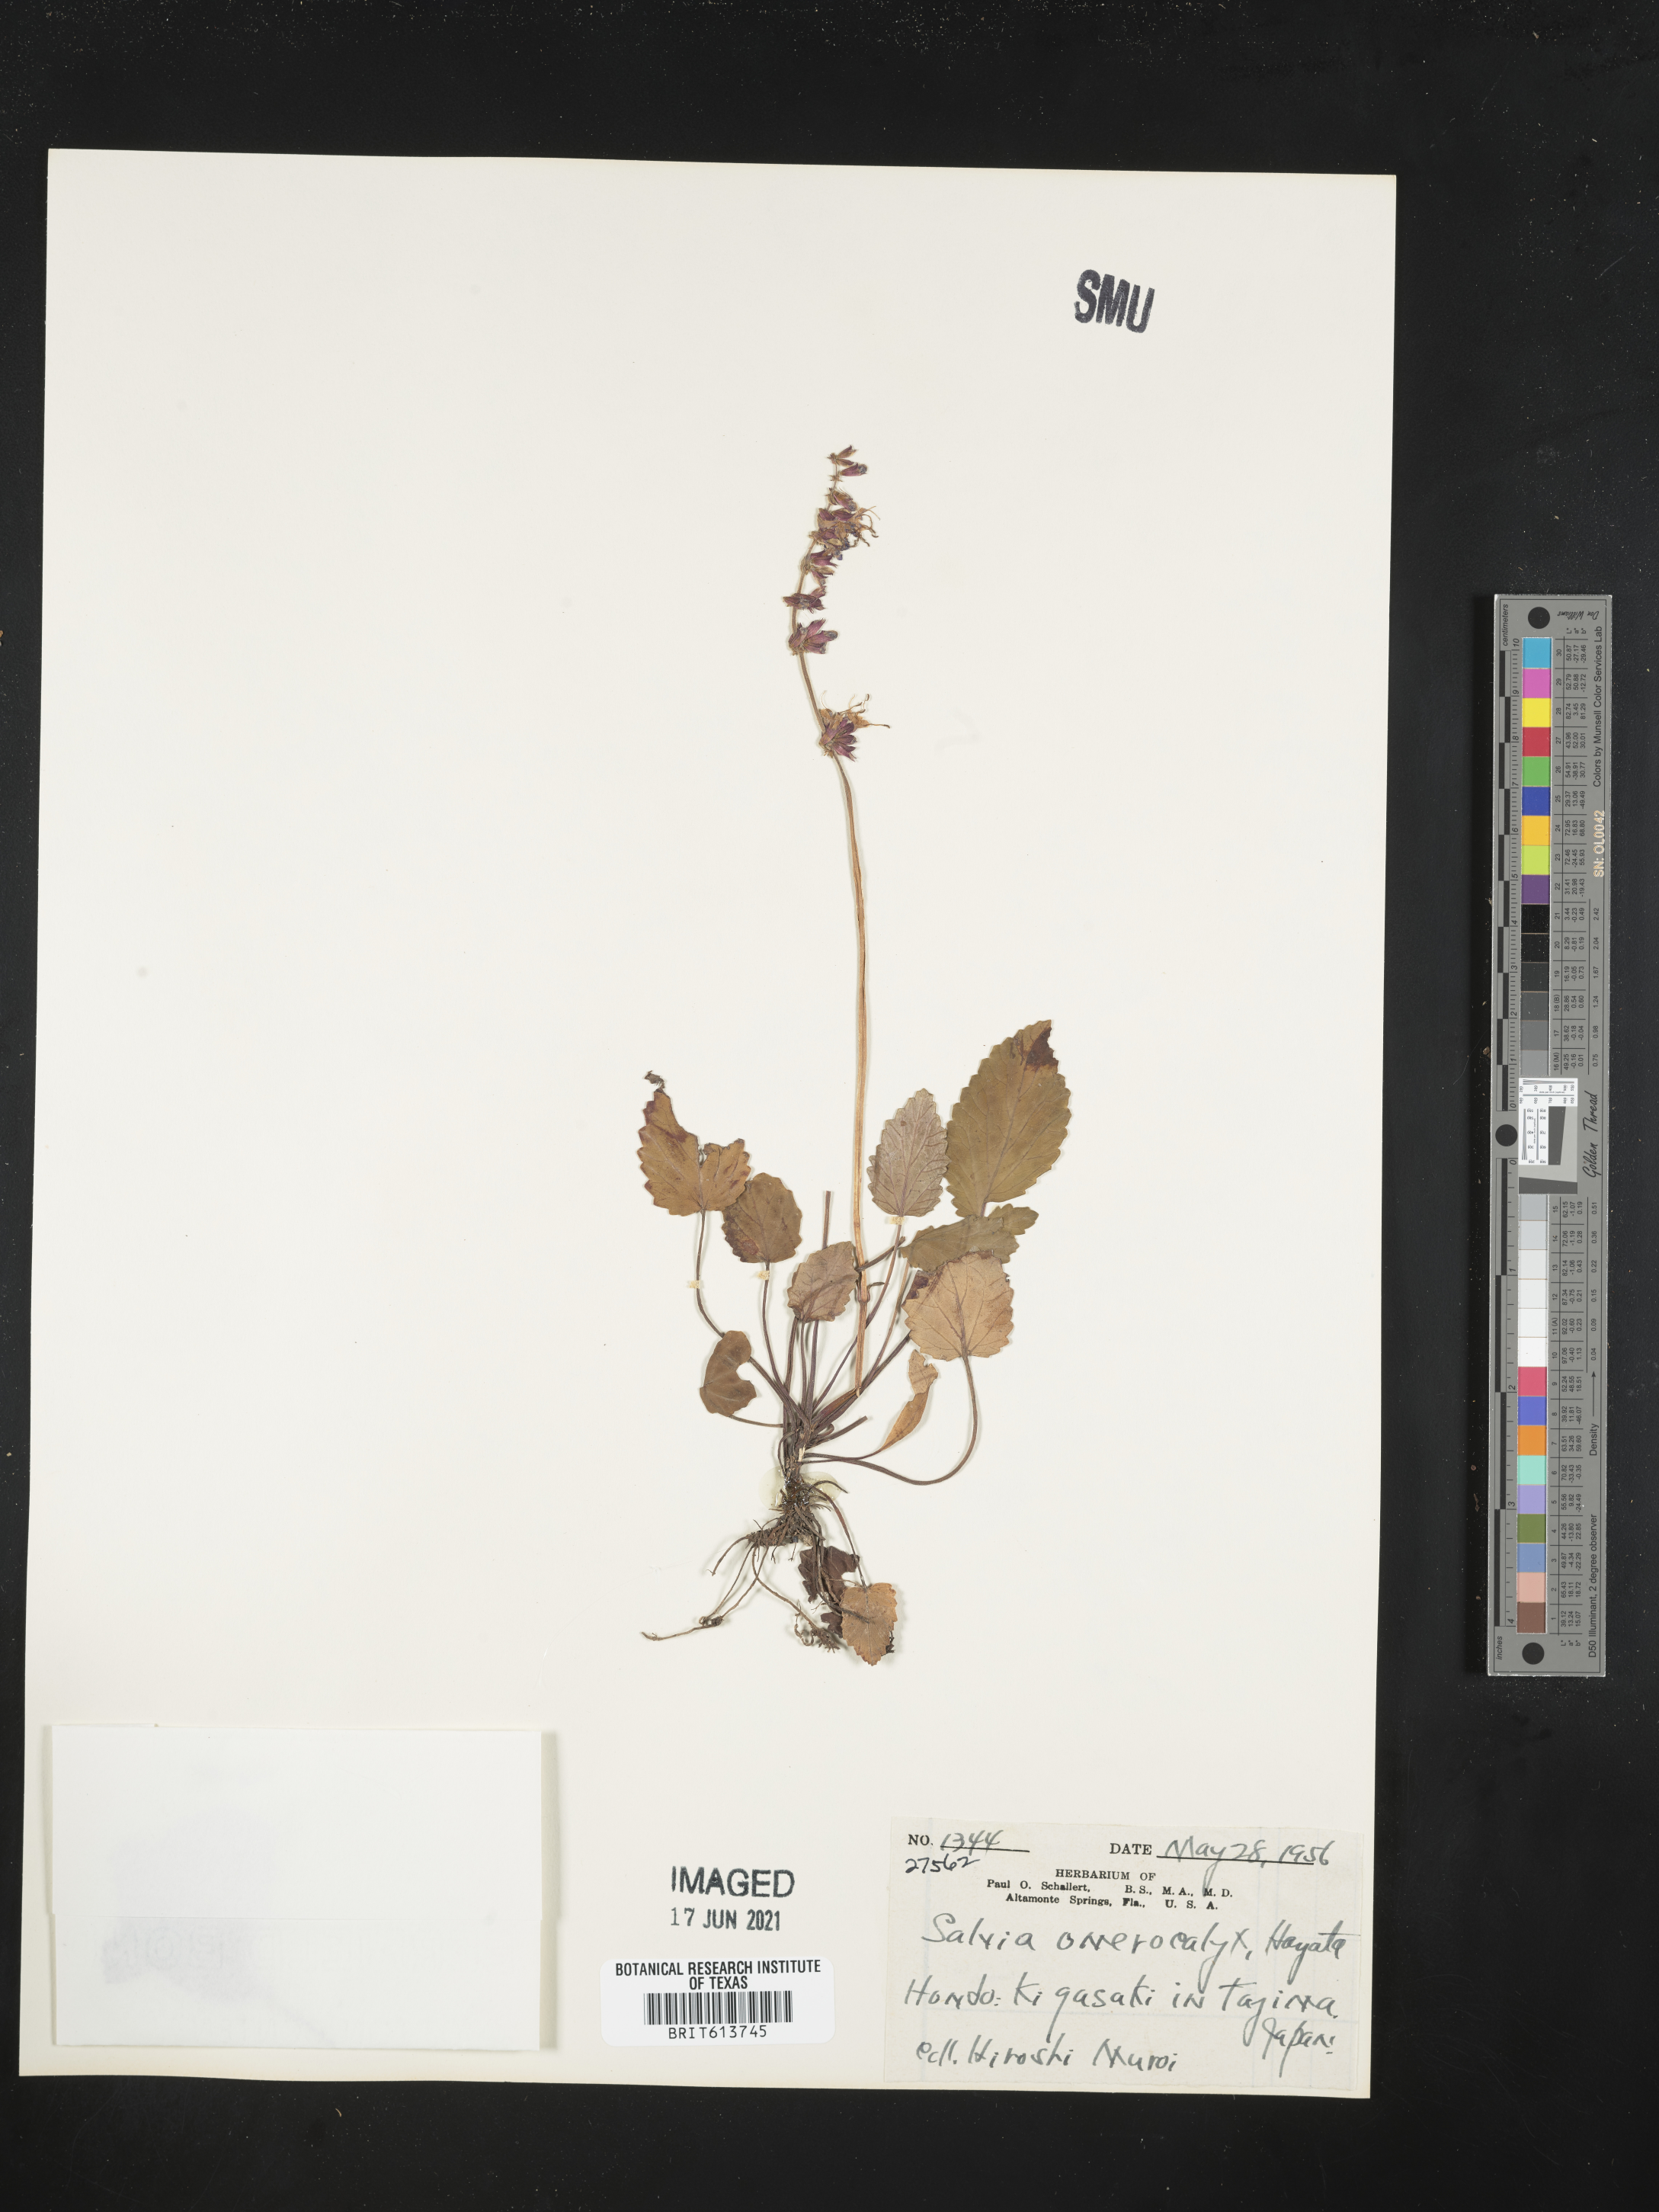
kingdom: Plantae
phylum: Tracheophyta
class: Magnoliopsida
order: Lamiales
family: Lamiaceae
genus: Salvia
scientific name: Salvia omerocalyx
